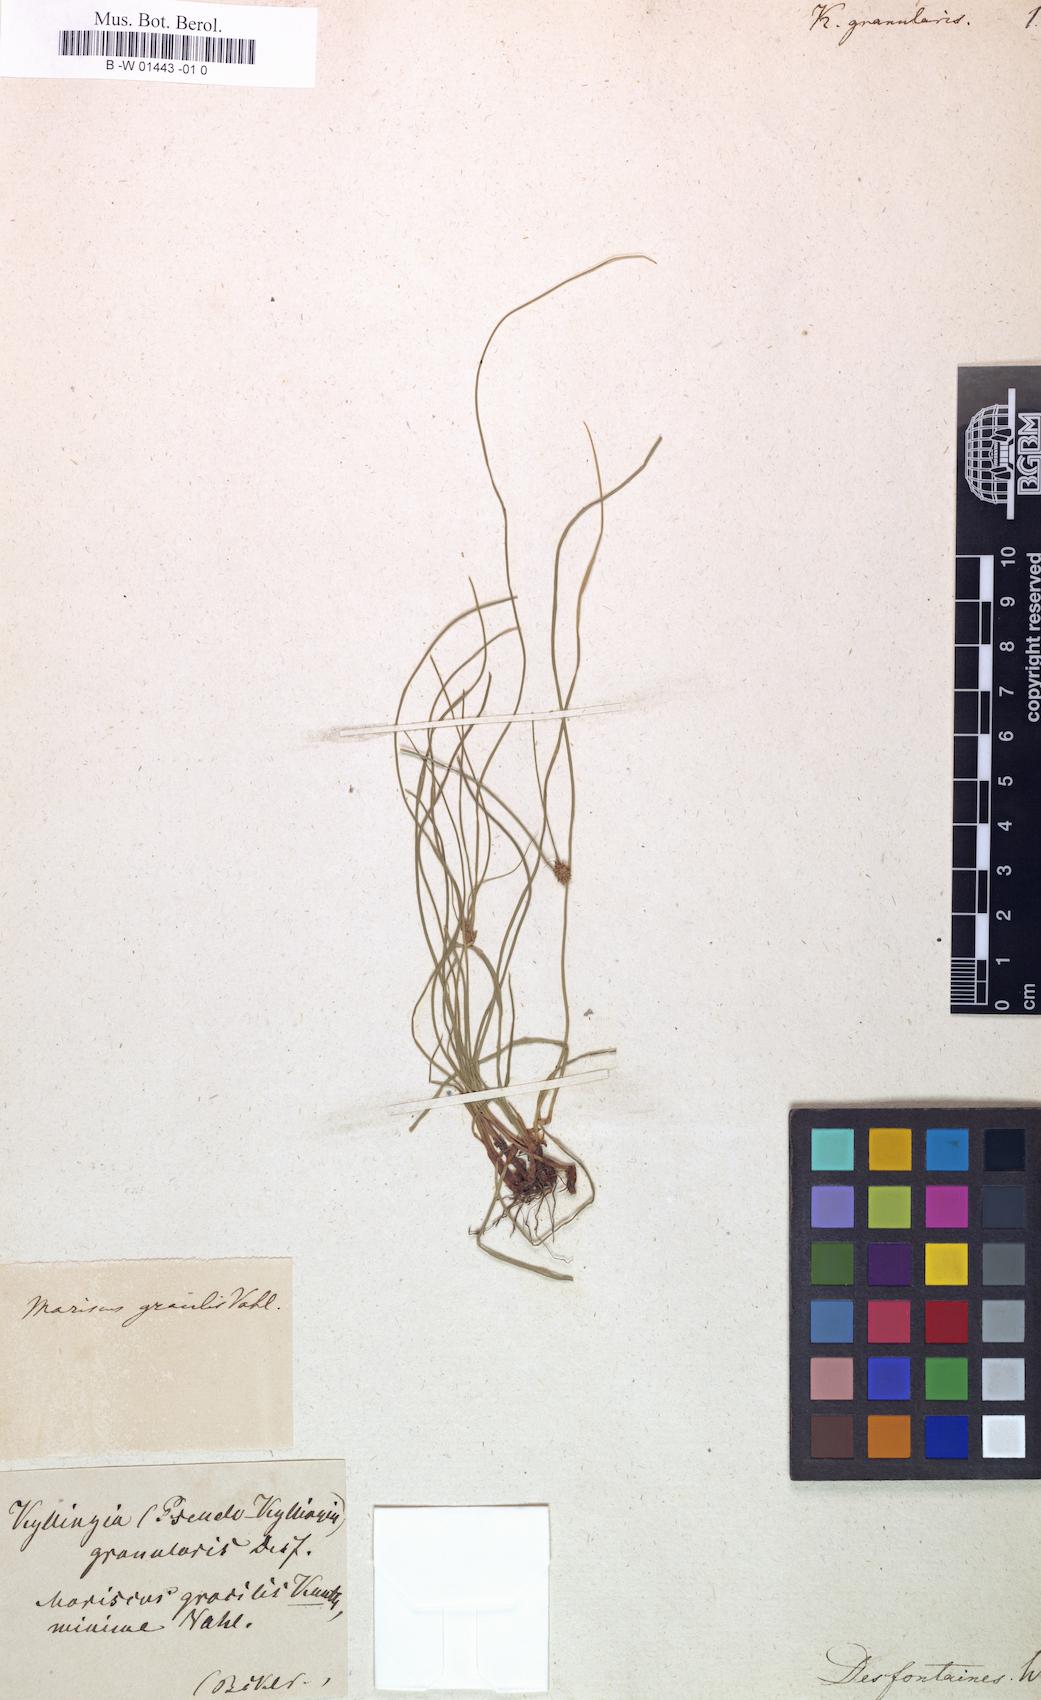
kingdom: Plantae
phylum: Tracheophyta
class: Liliopsida
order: Poales
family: Cyperaceae
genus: Cyperus
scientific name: Cyperus swartzii
